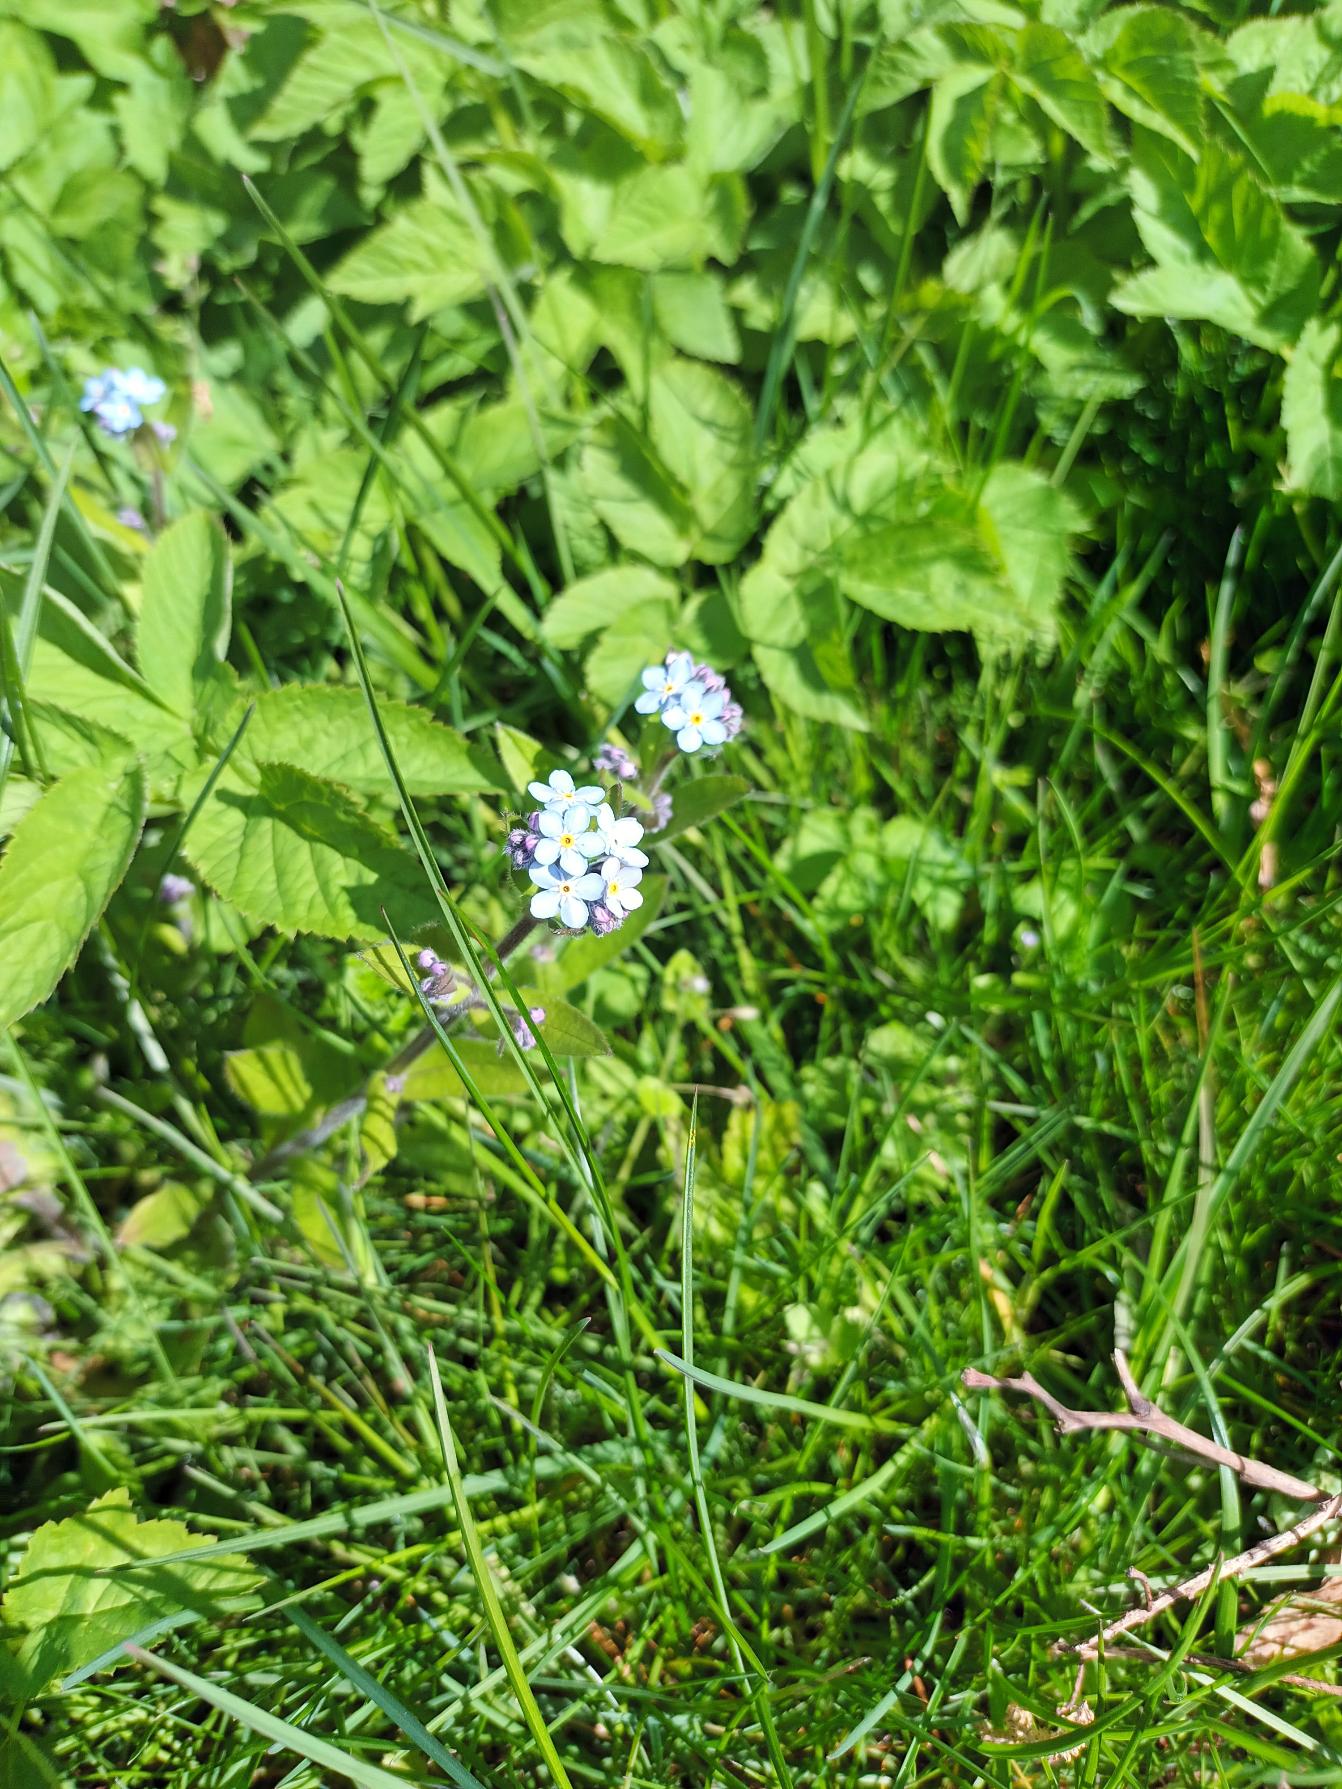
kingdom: Plantae
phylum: Tracheophyta
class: Magnoliopsida
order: Boraginales
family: Boraginaceae
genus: Myosotis
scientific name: Myosotis sylvatica
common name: Skov-forglemmigej
